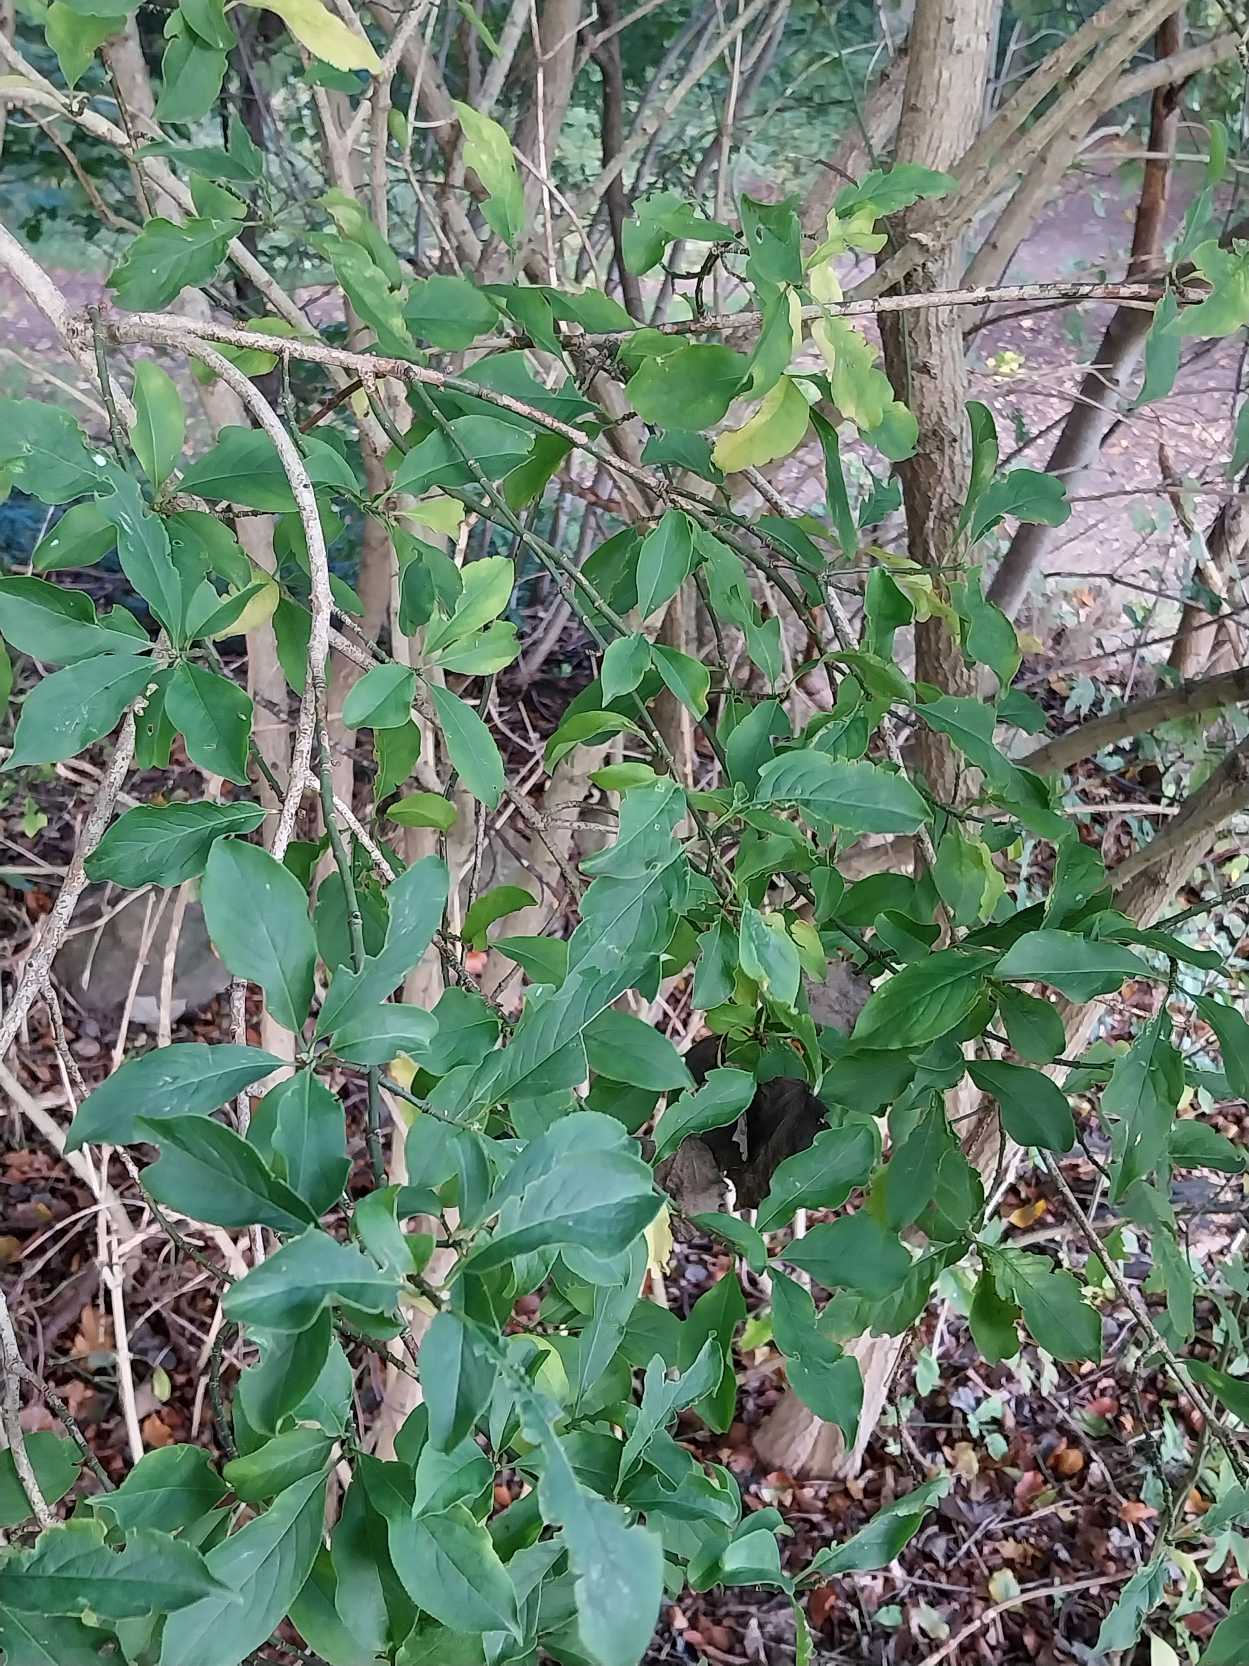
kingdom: Plantae
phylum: Tracheophyta
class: Magnoliopsida
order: Celastrales
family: Celastraceae
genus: Euonymus
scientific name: Euonymus europaeus
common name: Benved
